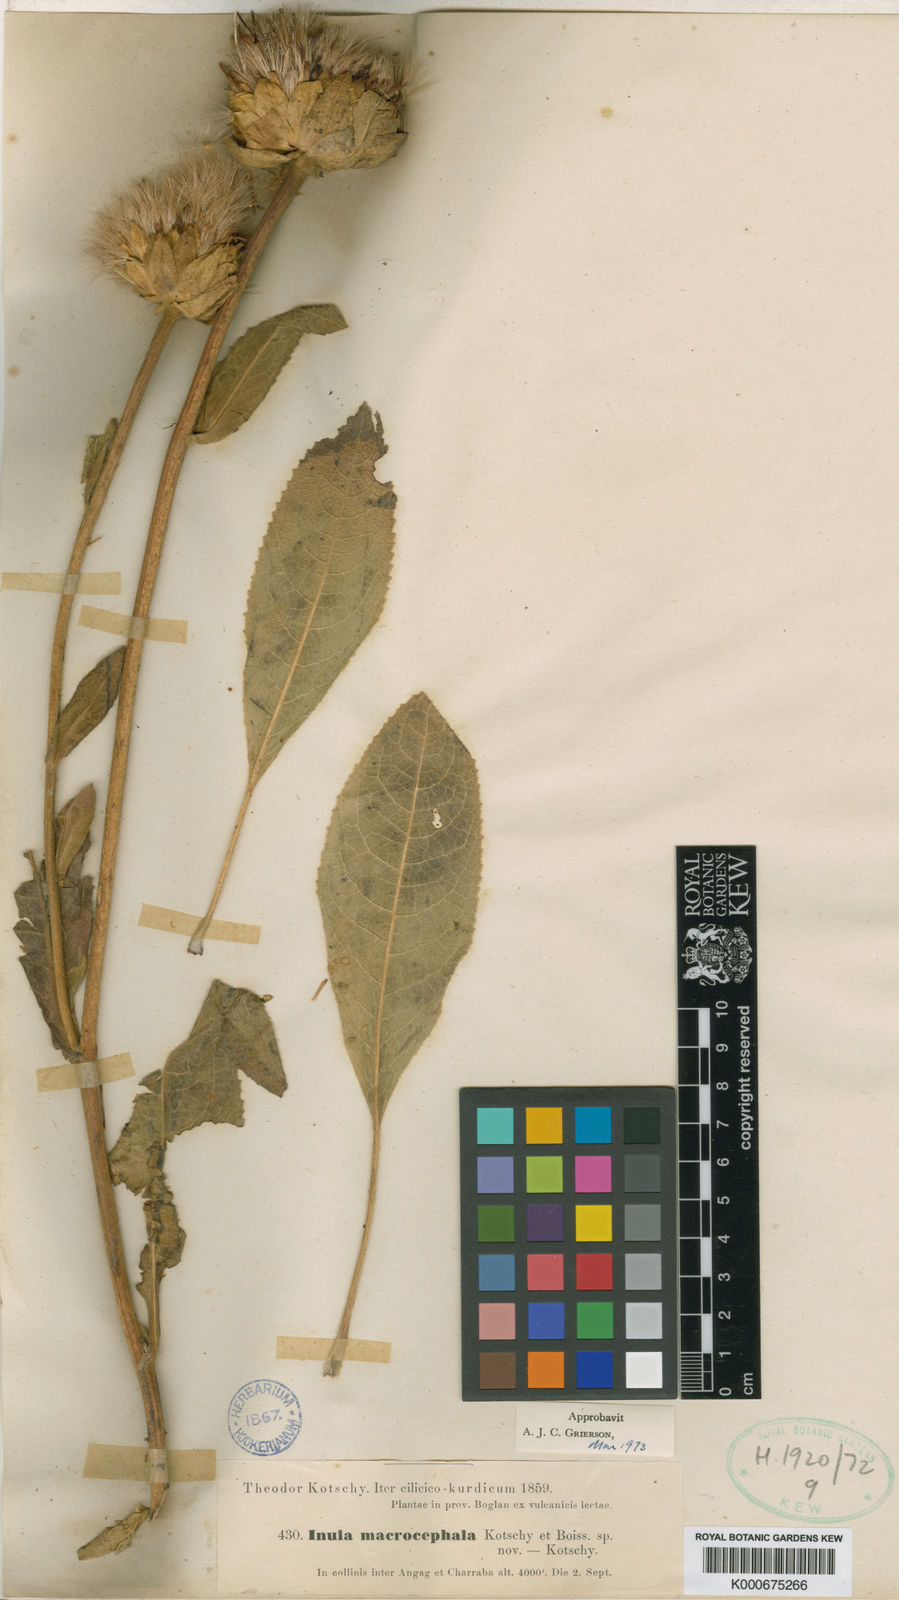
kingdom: Plantae
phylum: Tracheophyta
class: Magnoliopsida
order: Asterales
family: Asteraceae
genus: Inula
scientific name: Inula macrocephala
